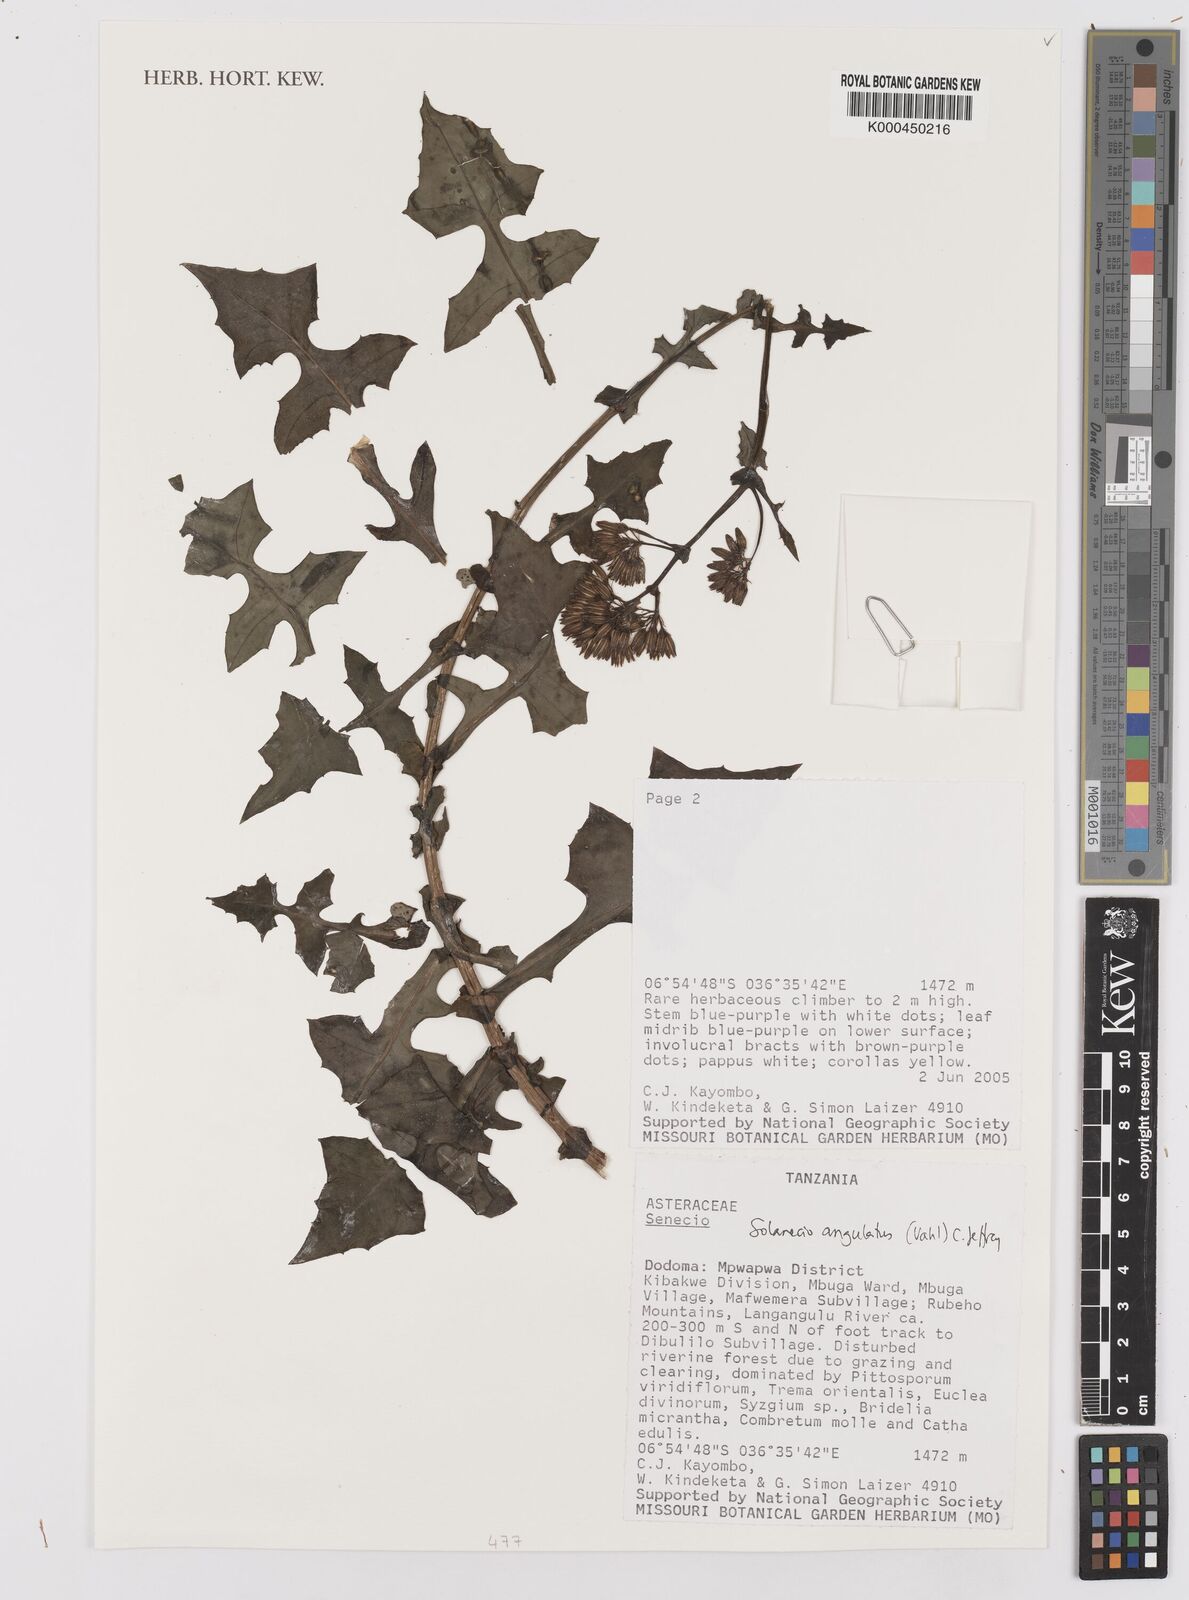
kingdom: Plantae
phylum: Tracheophyta
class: Magnoliopsida
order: Asterales
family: Asteraceae
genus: Senecio
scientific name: Senecio
